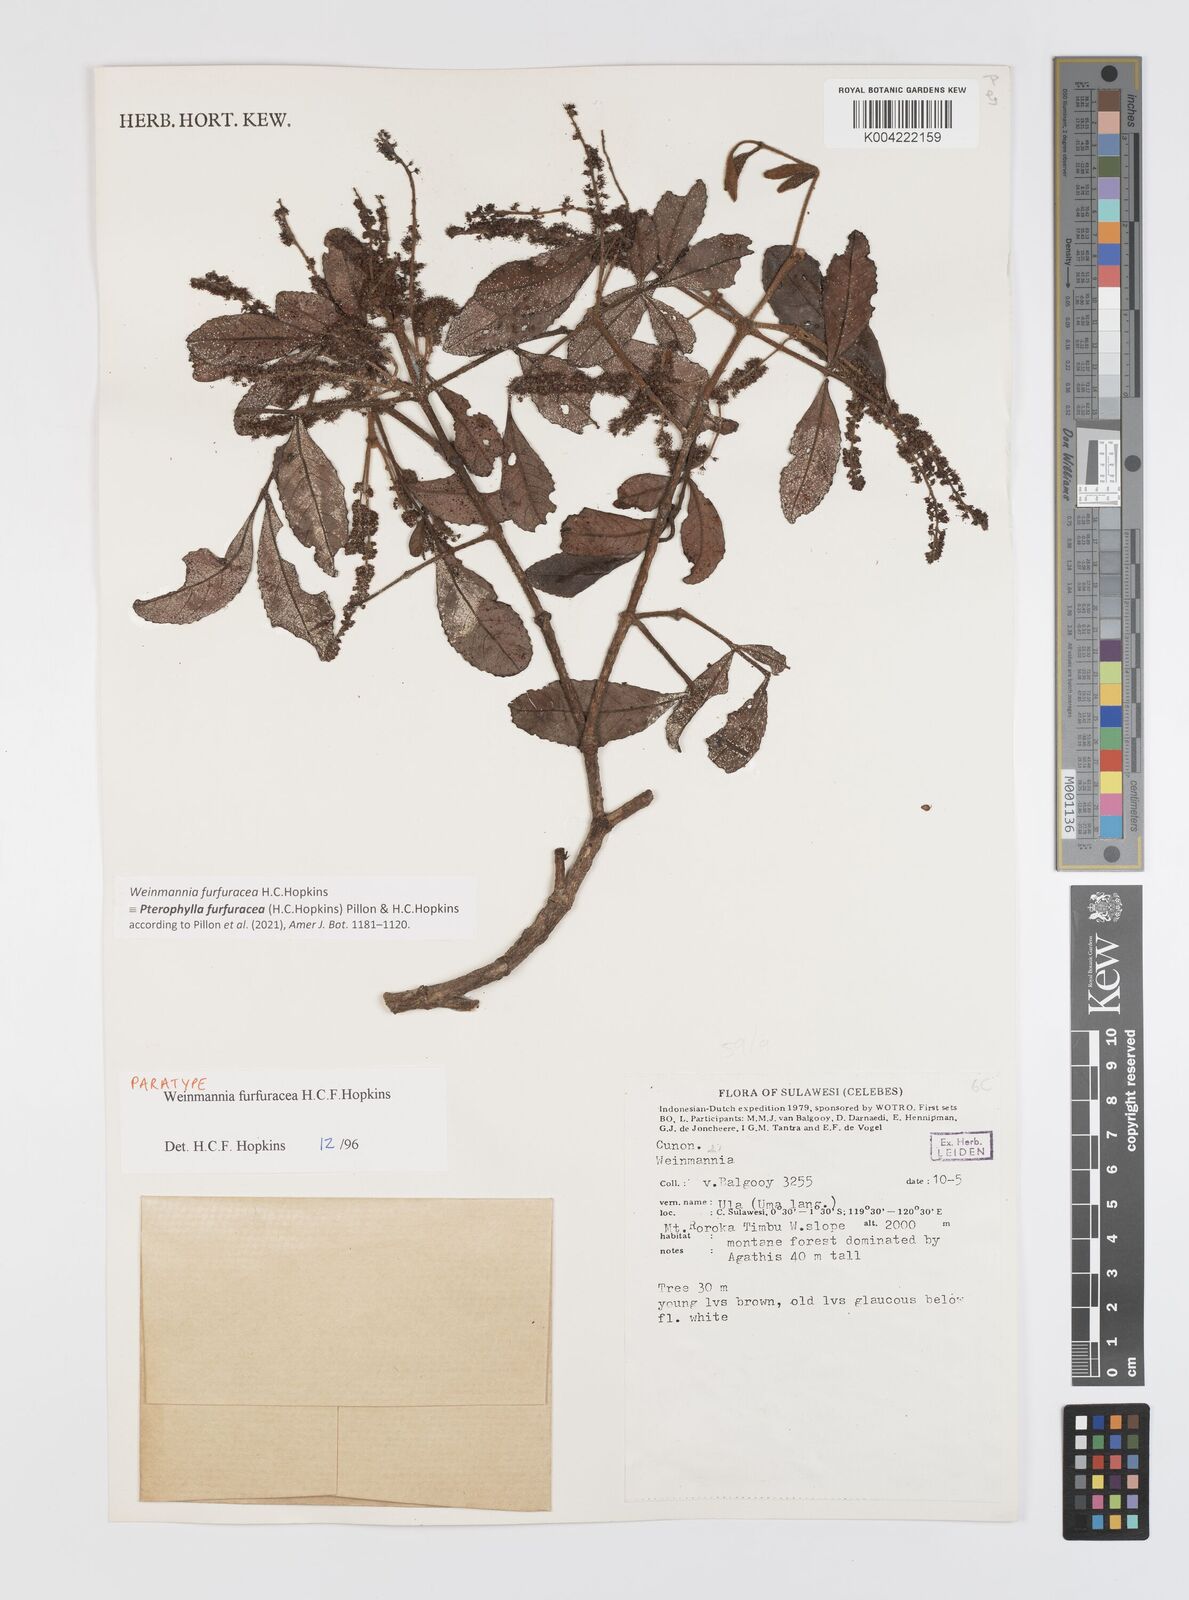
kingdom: Plantae
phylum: Tracheophyta
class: Magnoliopsida
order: Oxalidales
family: Cunoniaceae
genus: Pterophylla
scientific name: Pterophylla furfuracea
